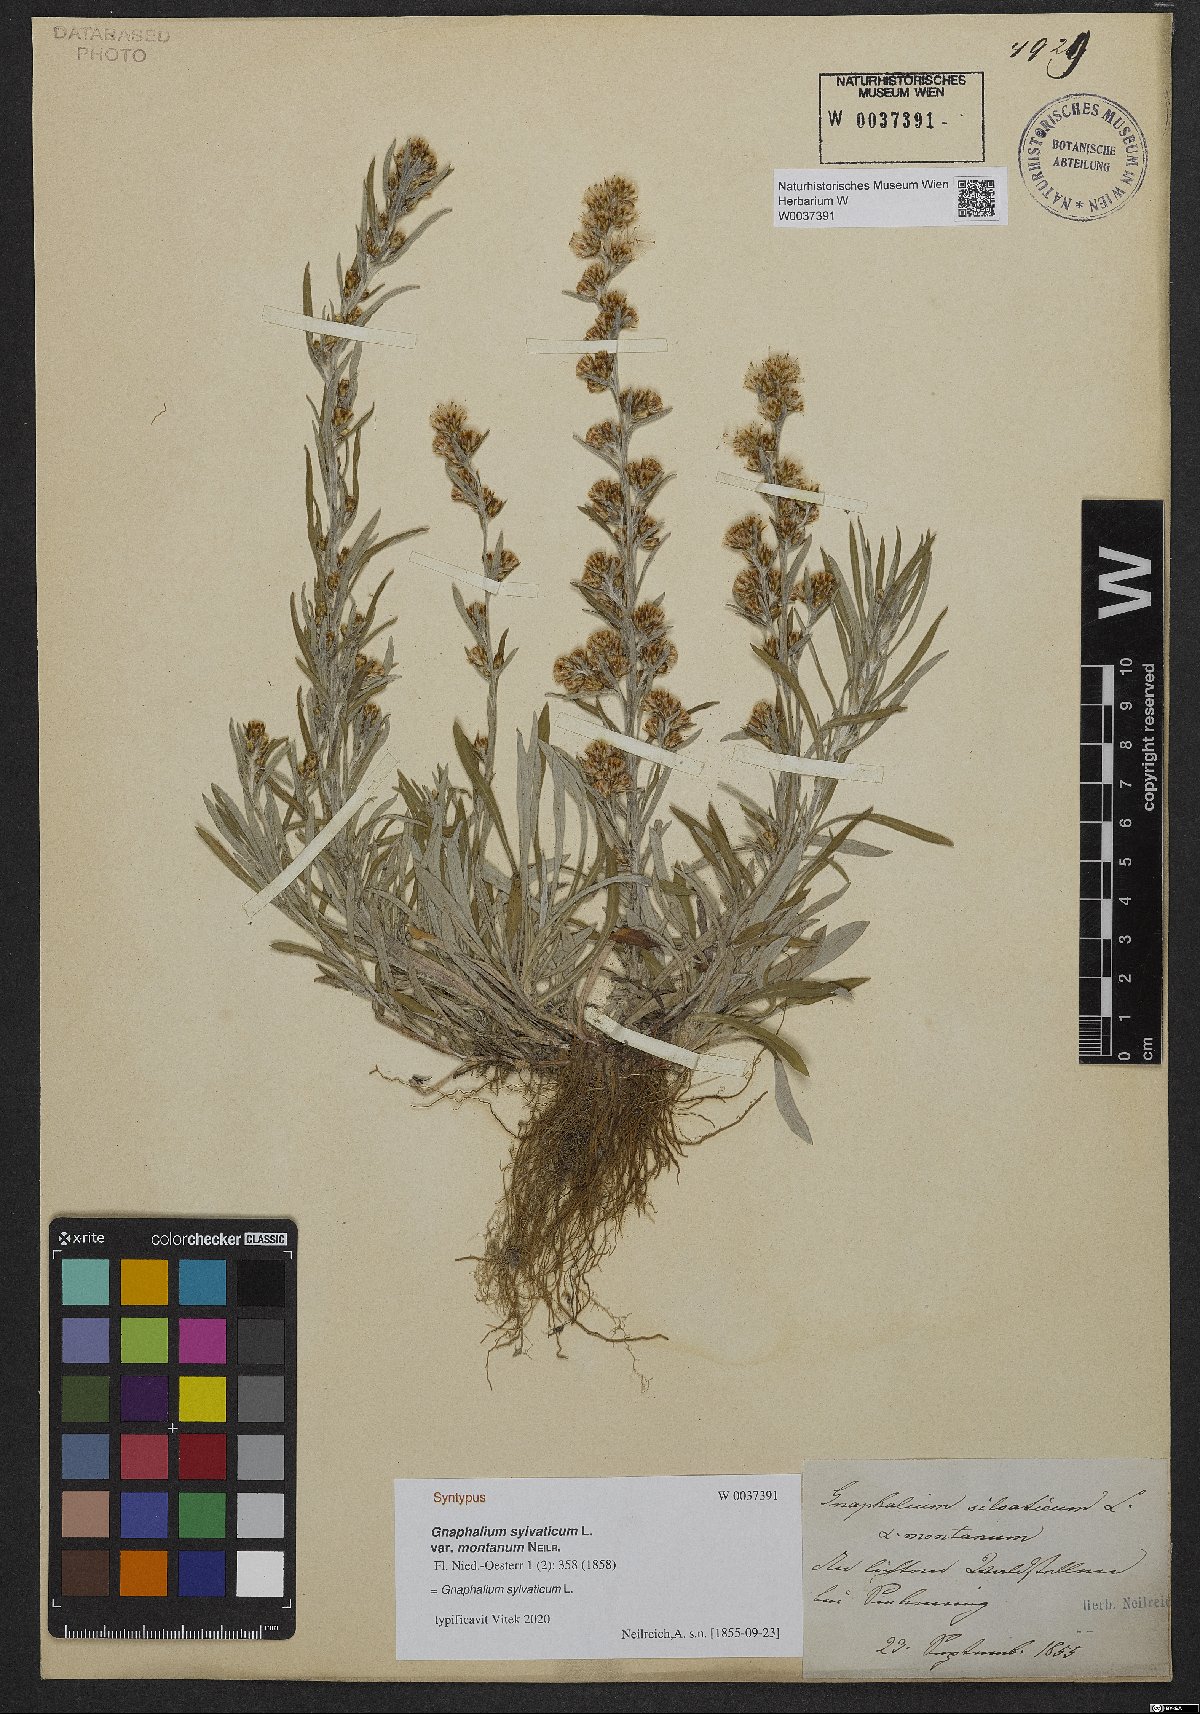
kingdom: Plantae
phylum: Tracheophyta
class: Magnoliopsida
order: Asterales
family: Asteraceae
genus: Omalotheca
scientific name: Omalotheca sylvatica
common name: Heath cudweed
